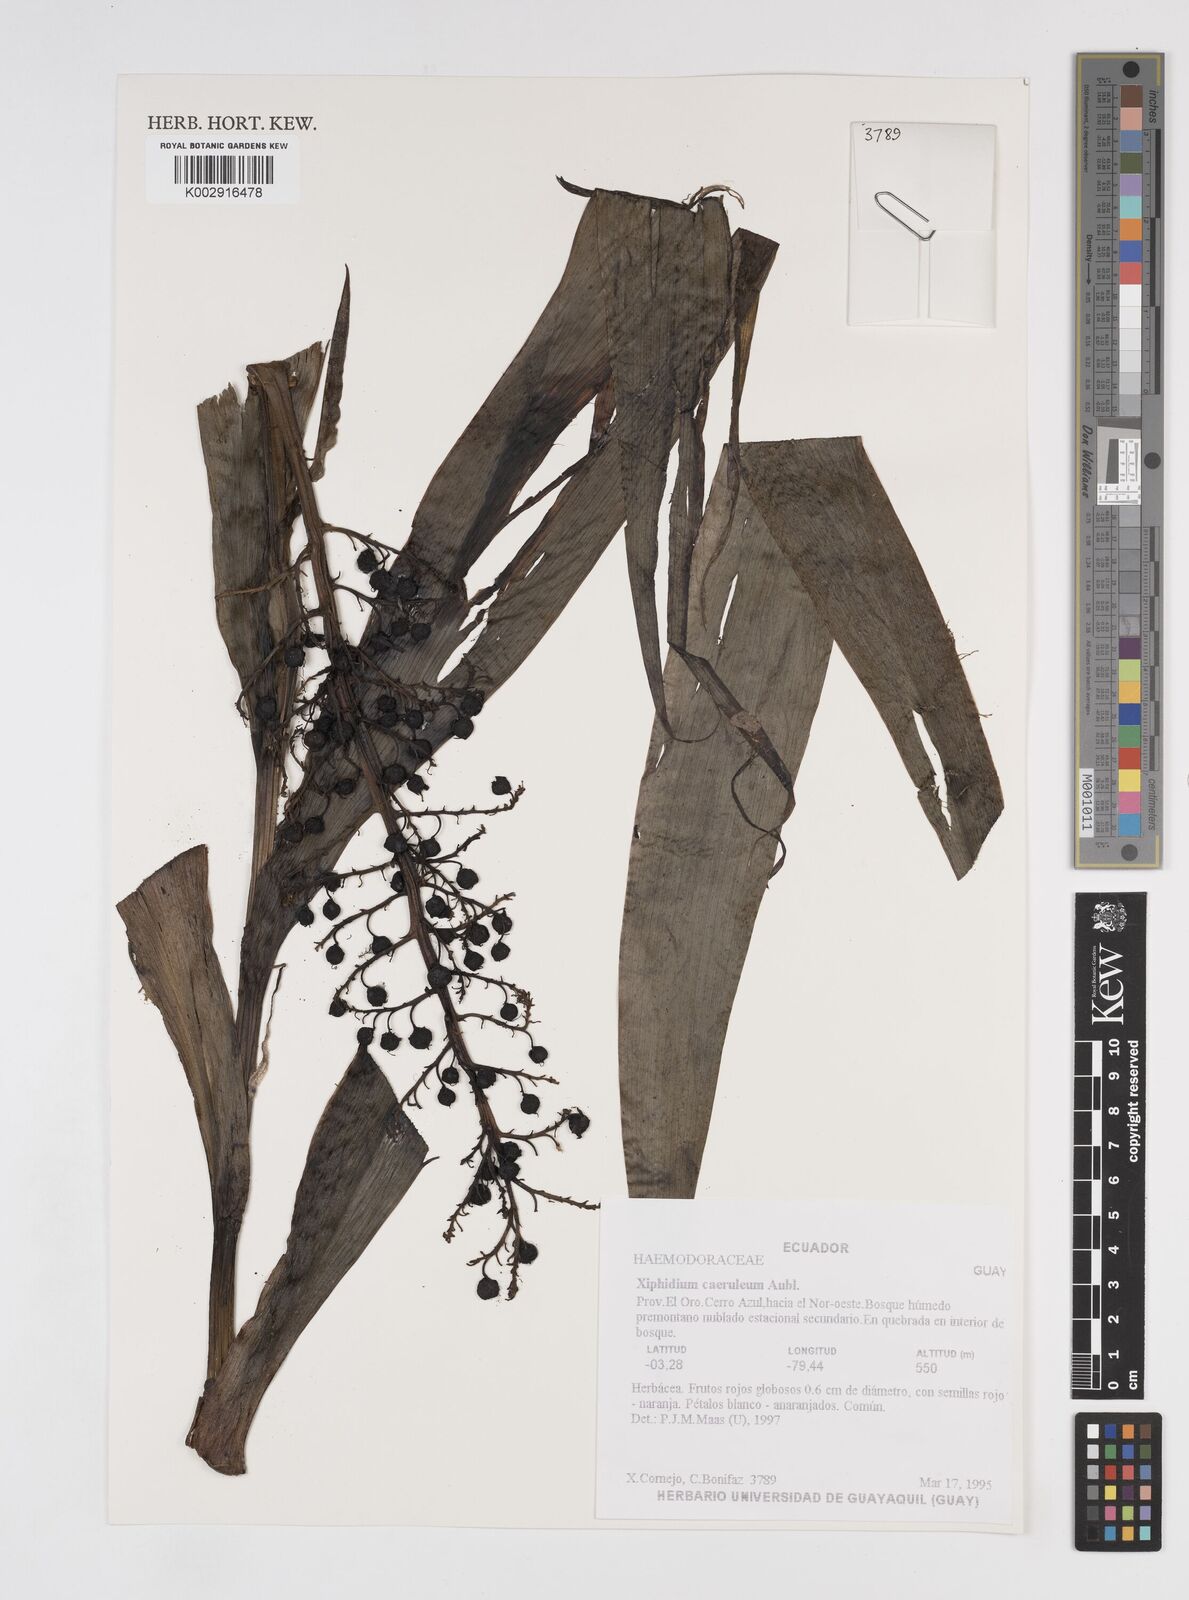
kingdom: Plantae
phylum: Tracheophyta
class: Liliopsida
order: Commelinales
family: Haemodoraceae
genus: Xiphidium
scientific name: Xiphidium caeruleum
